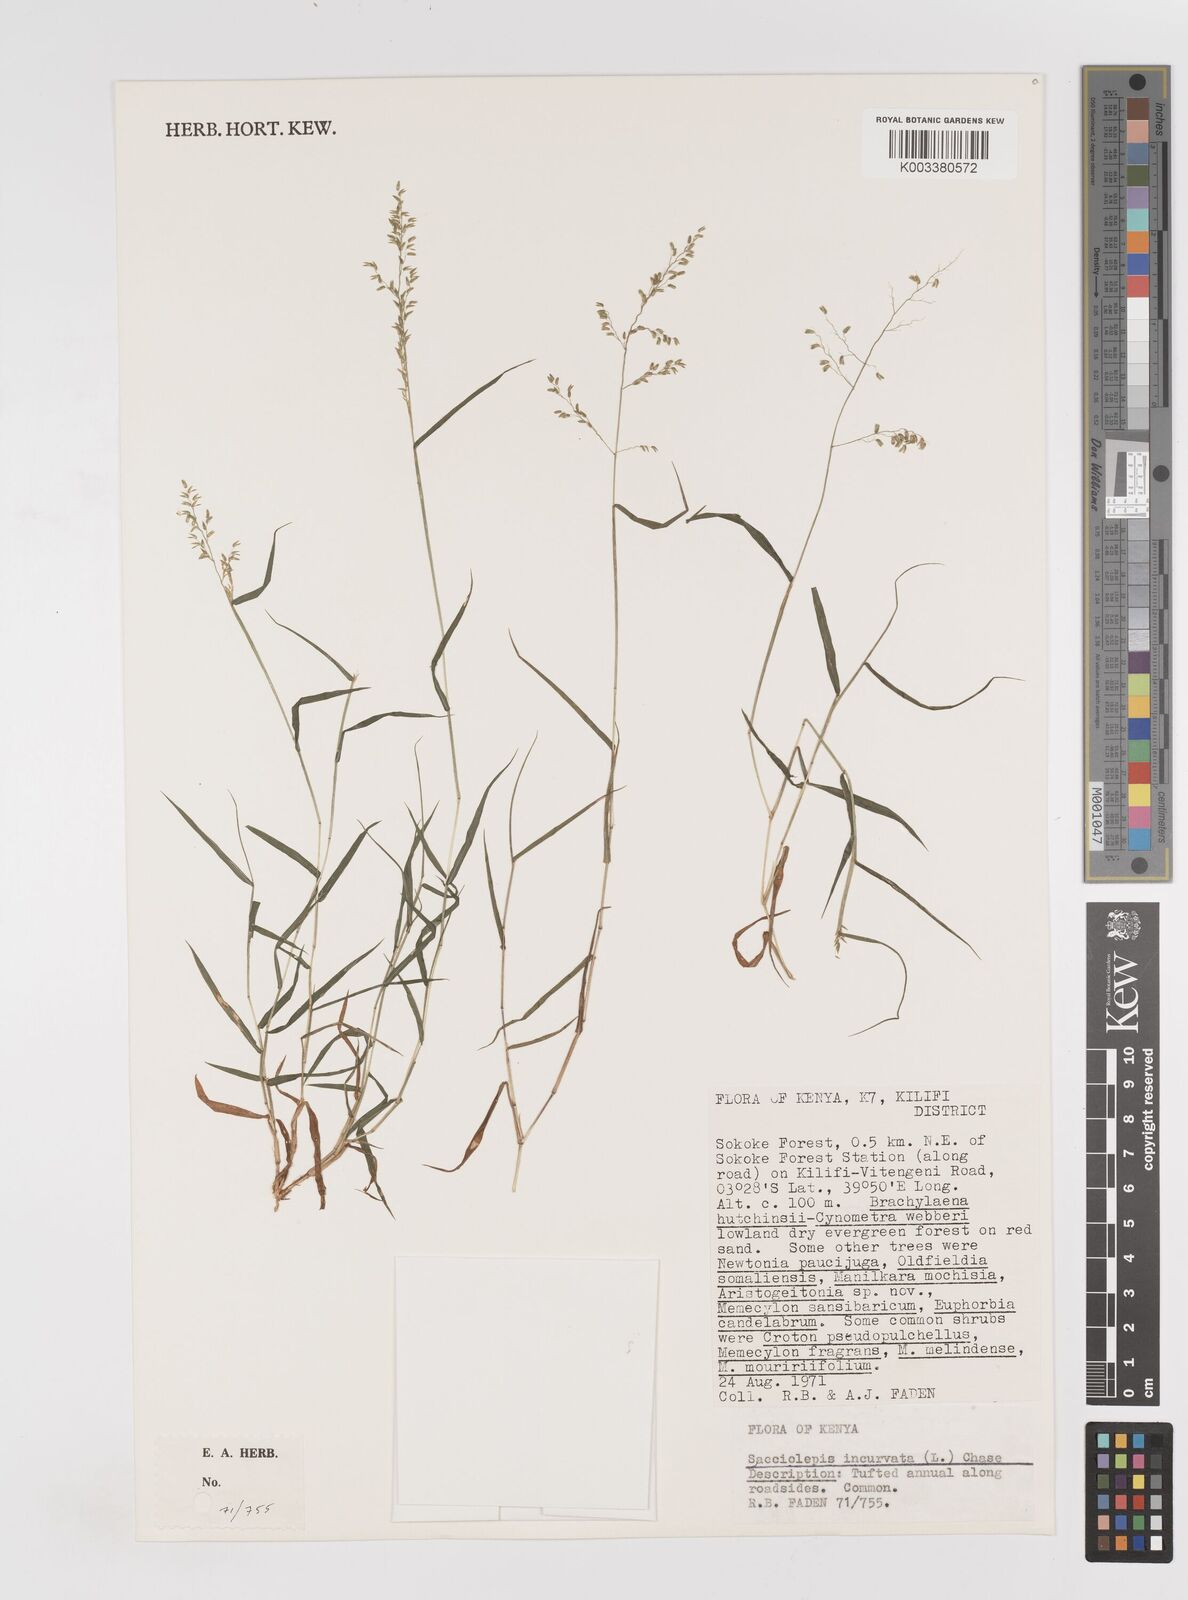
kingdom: Plantae
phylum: Tracheophyta
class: Liliopsida
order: Poales
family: Poaceae
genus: Sacciolepis
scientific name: Sacciolepis curvata
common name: Forest hood grass
